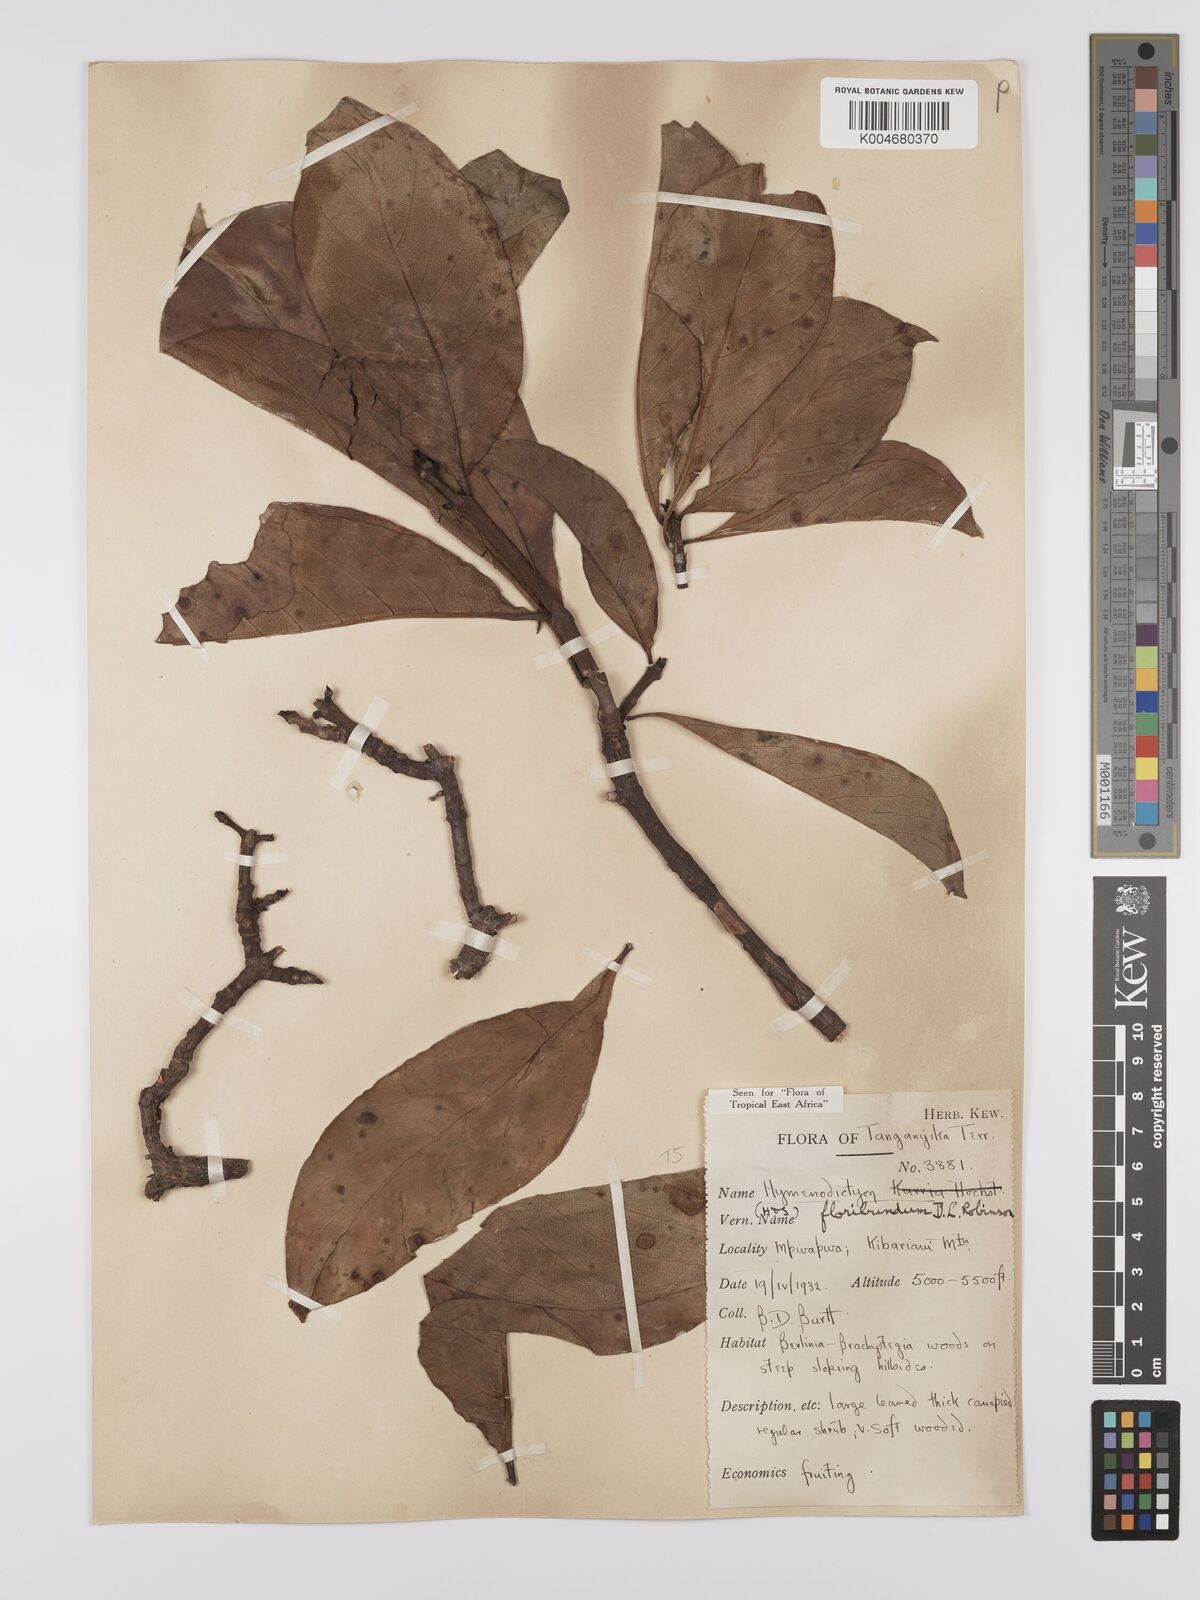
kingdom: Plantae
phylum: Tracheophyta
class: Magnoliopsida
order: Gentianales
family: Rubiaceae
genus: Hymenodictyon
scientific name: Hymenodictyon floribundum
